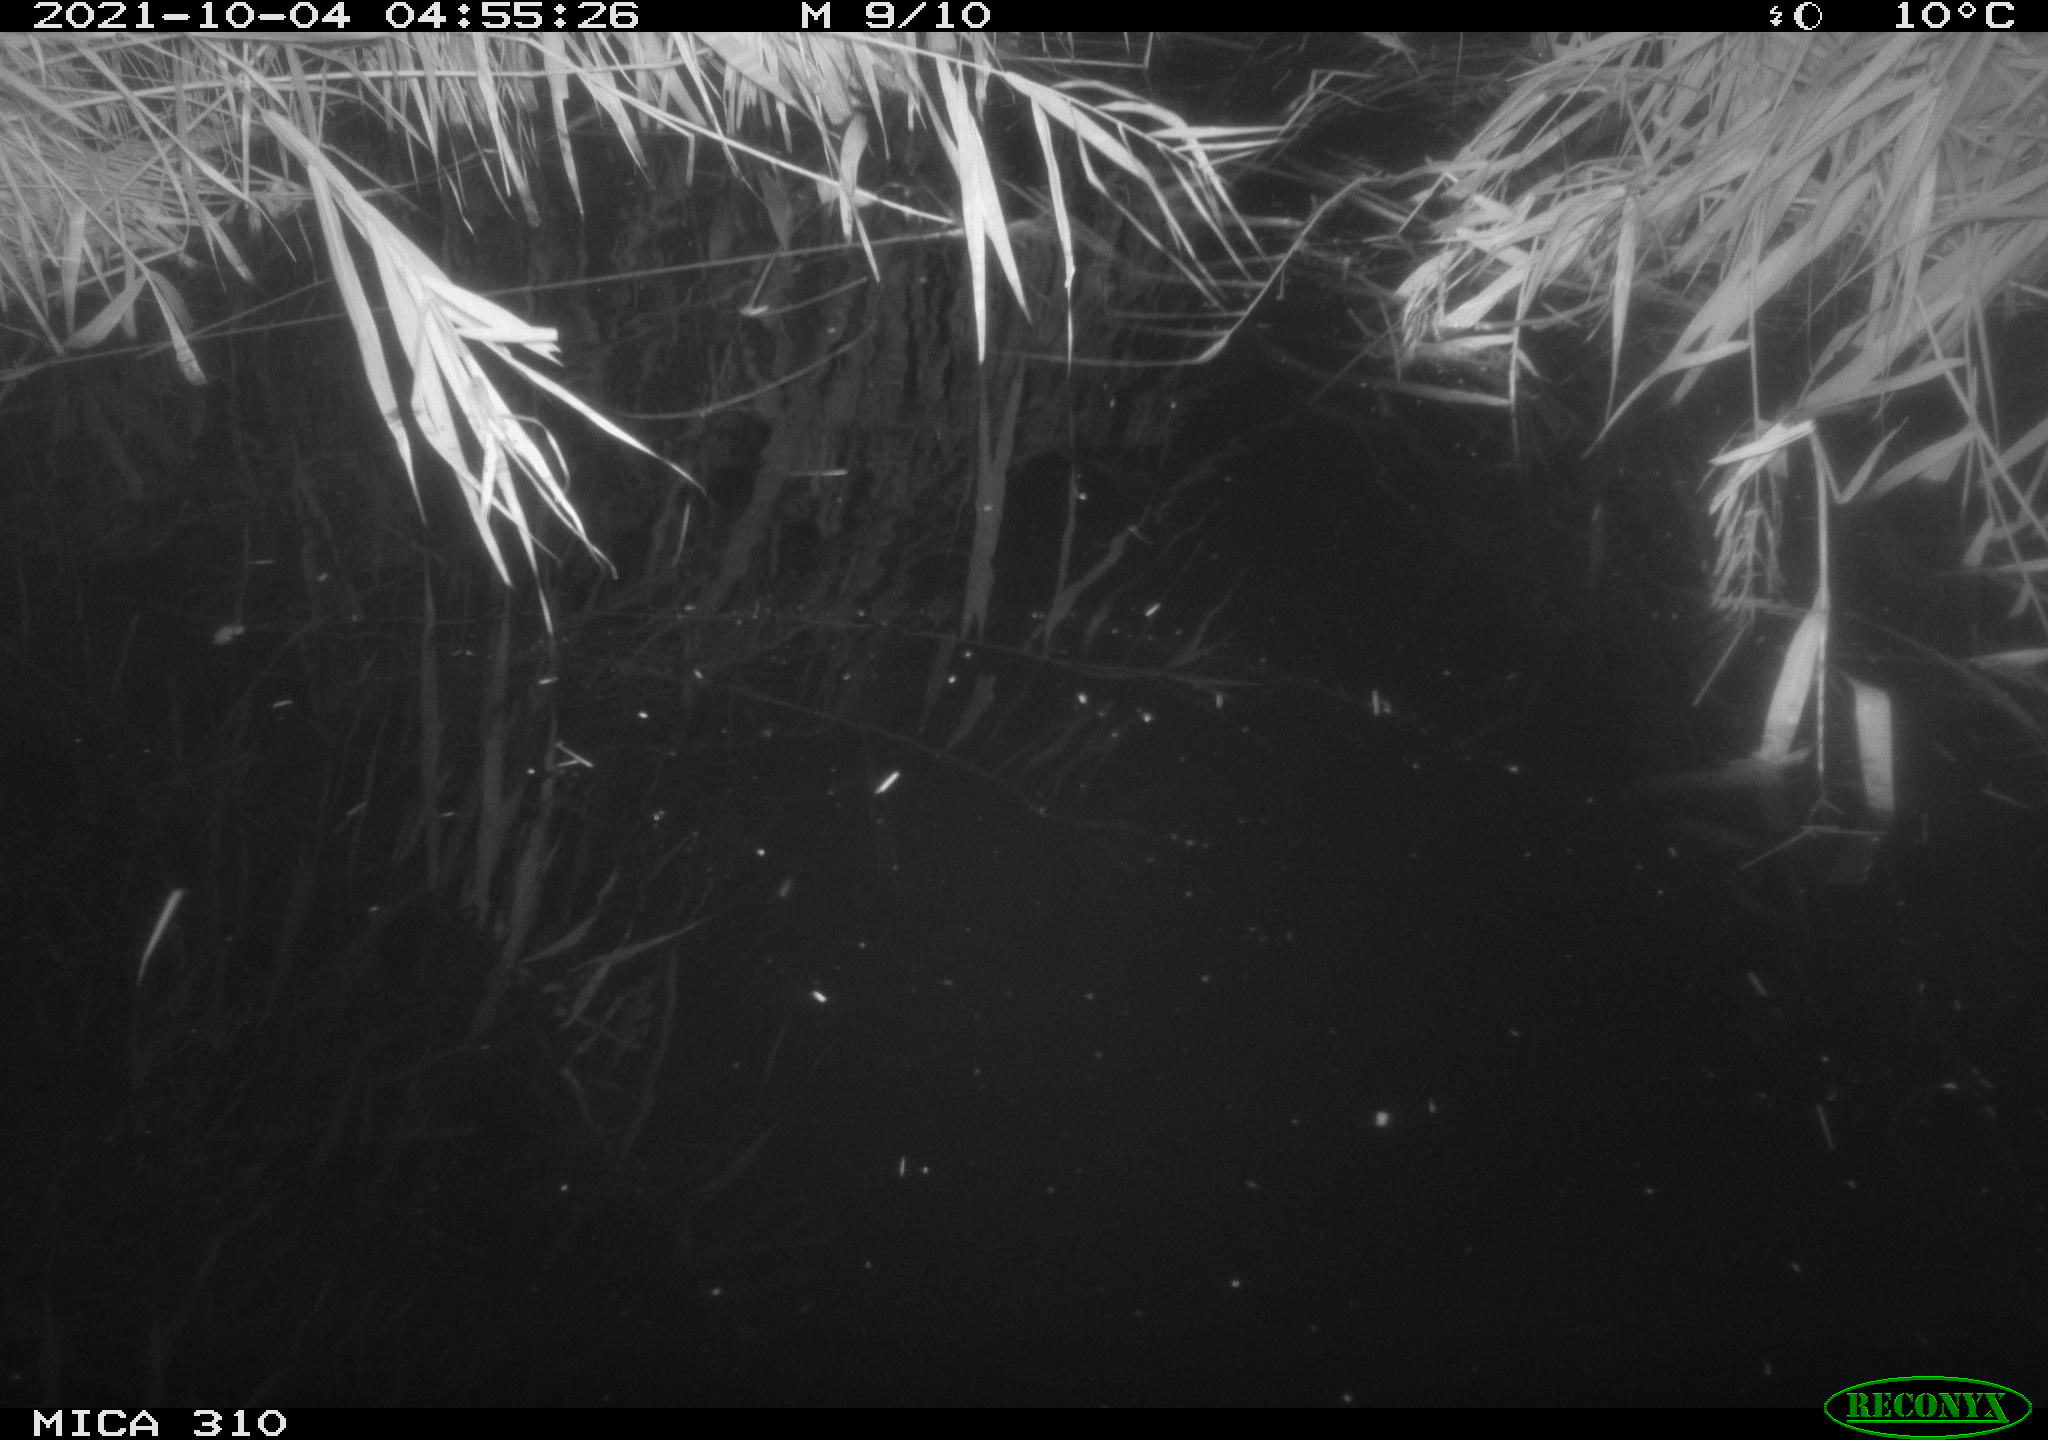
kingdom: Animalia
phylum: Chordata
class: Mammalia
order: Rodentia
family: Muridae
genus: Rattus
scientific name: Rattus norvegicus
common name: Brown rat
